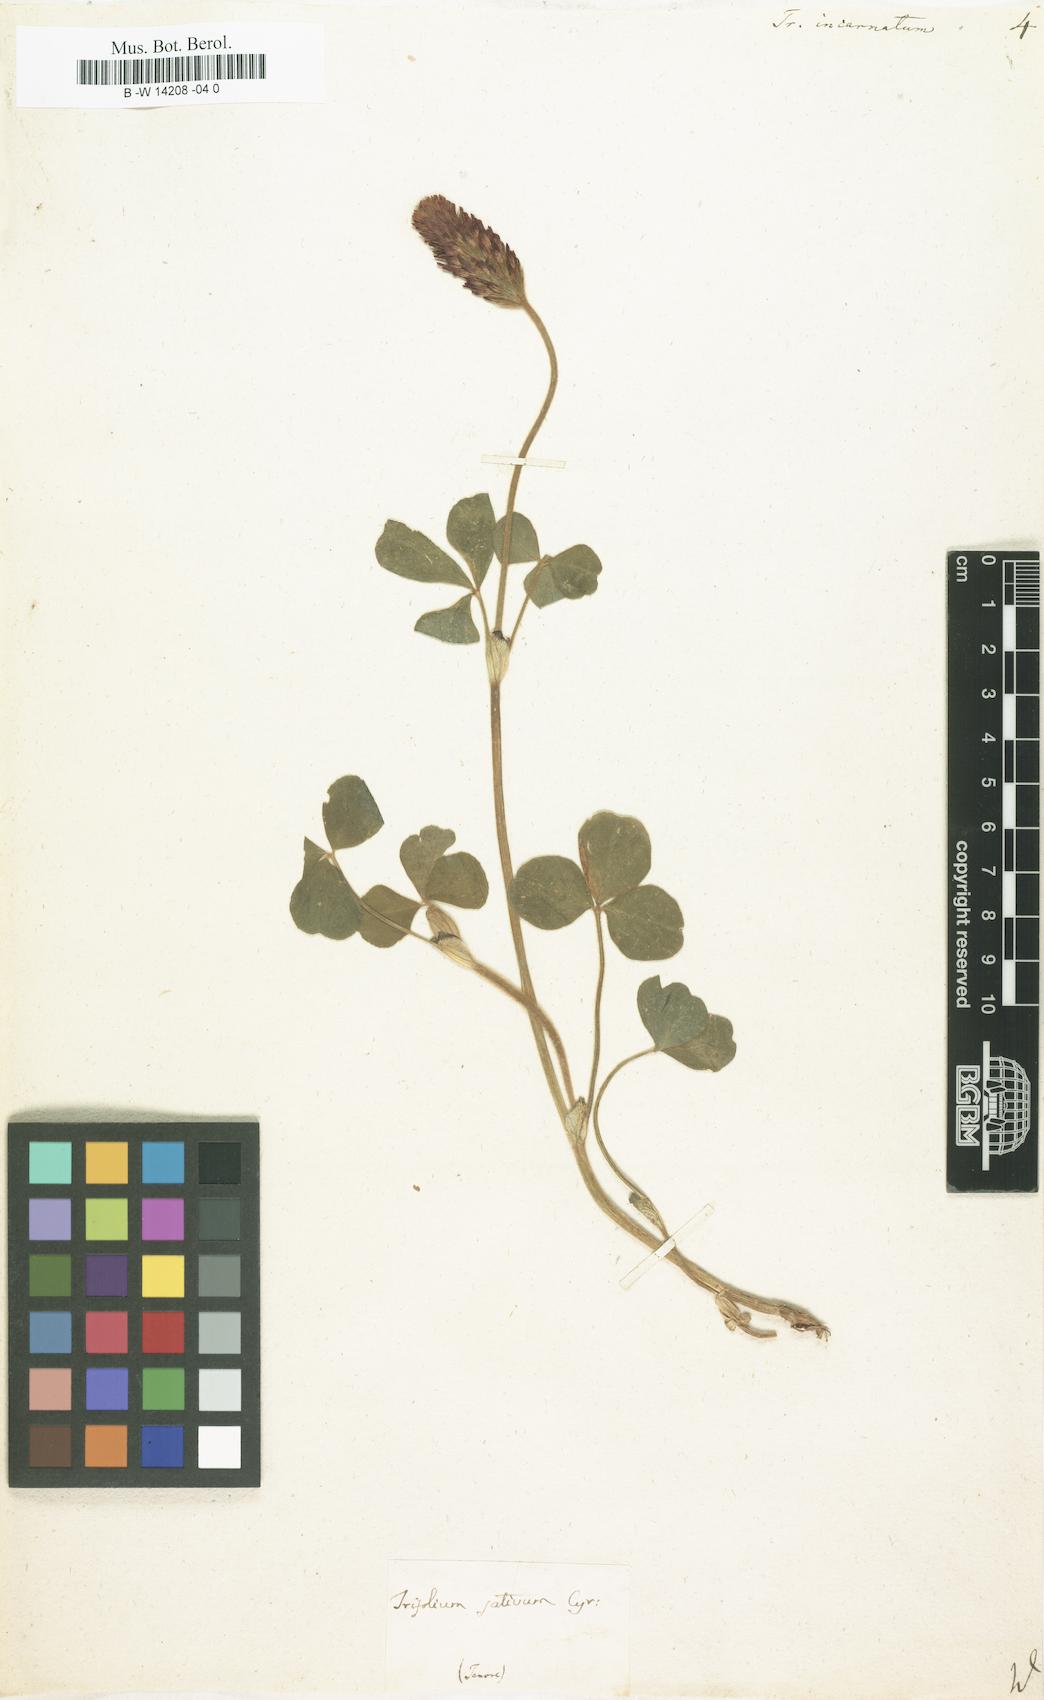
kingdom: Plantae
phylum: Tracheophyta
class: Magnoliopsida
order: Fabales
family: Fabaceae
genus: Trifolium
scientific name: Trifolium incarnatum
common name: Crimson clover
